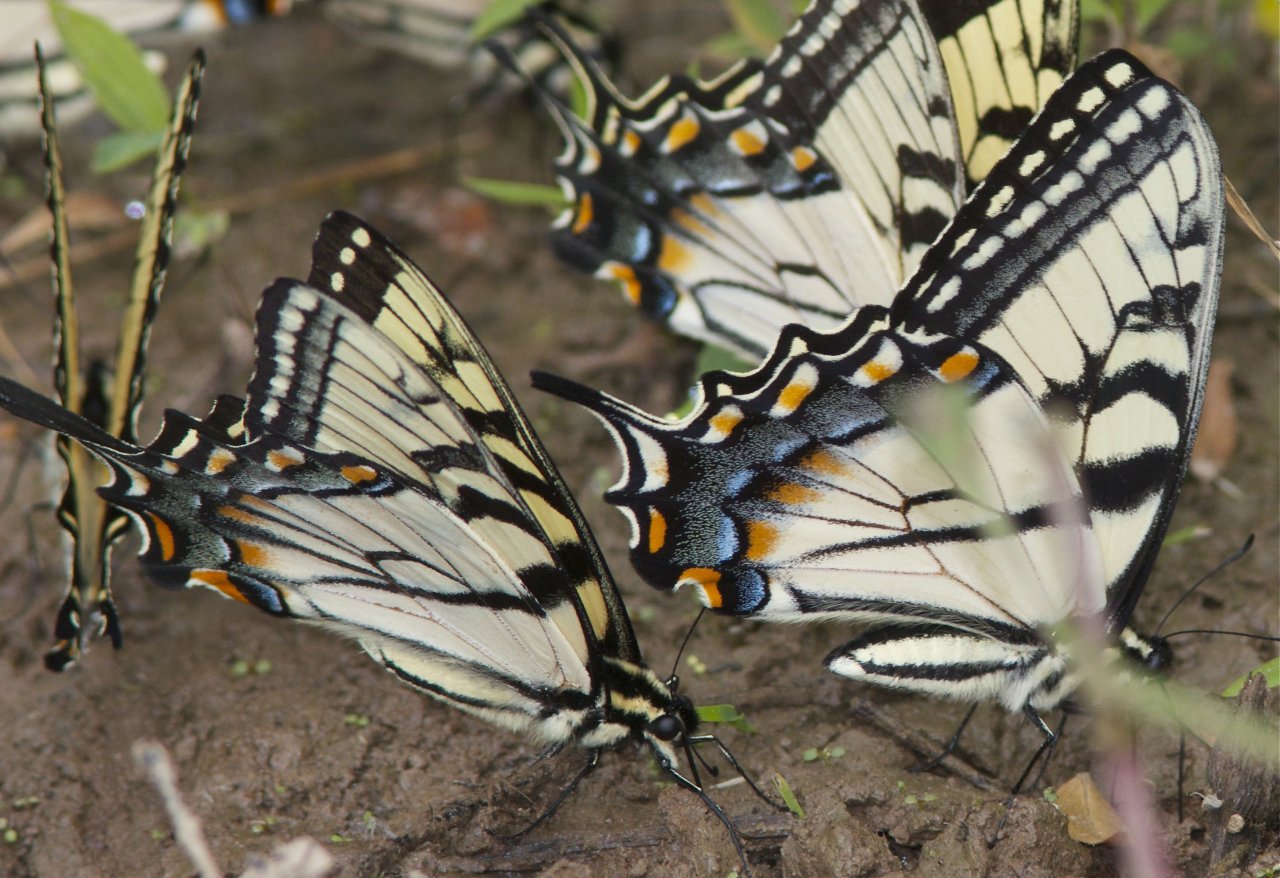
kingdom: Animalia
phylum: Arthropoda
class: Insecta
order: Lepidoptera
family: Papilionidae
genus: Pterourus
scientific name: Pterourus glaucus
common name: Eastern Tiger Swallowtail
